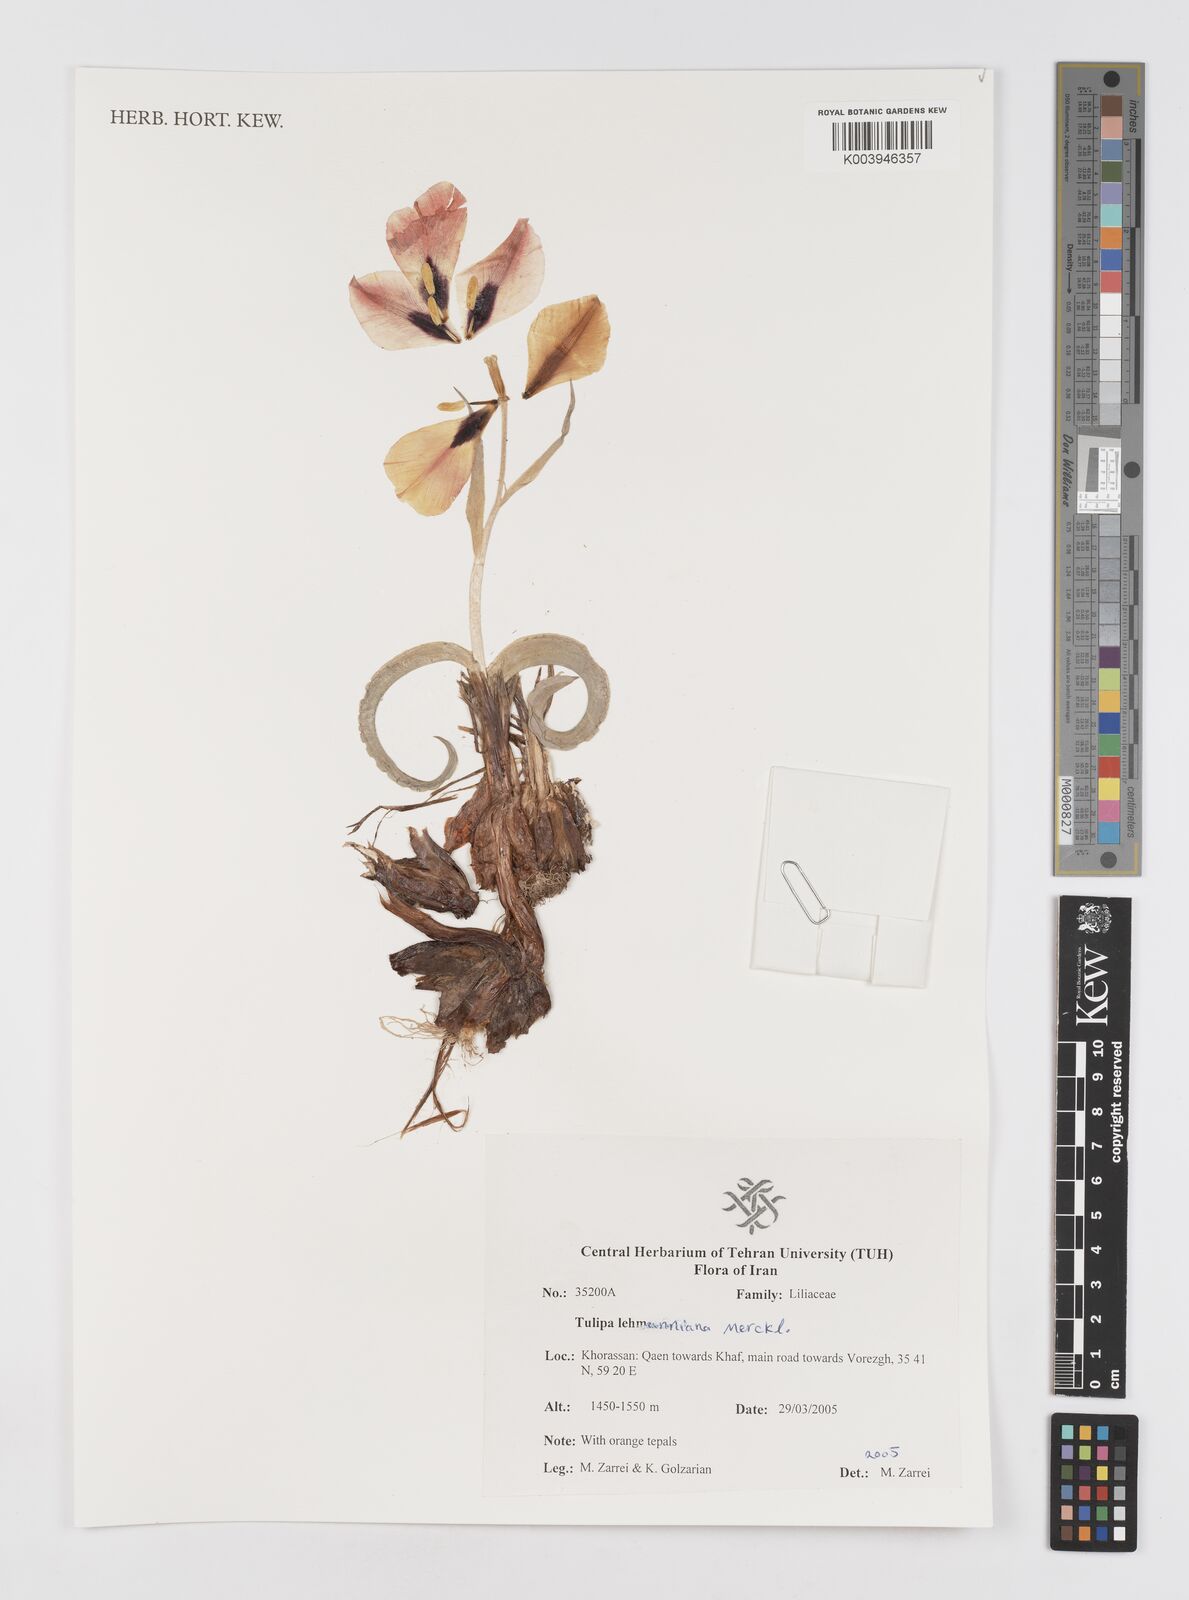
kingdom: Plantae
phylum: Tracheophyta
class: Liliopsida
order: Liliales
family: Liliaceae
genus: Tulipa
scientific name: Tulipa lehmanniana
